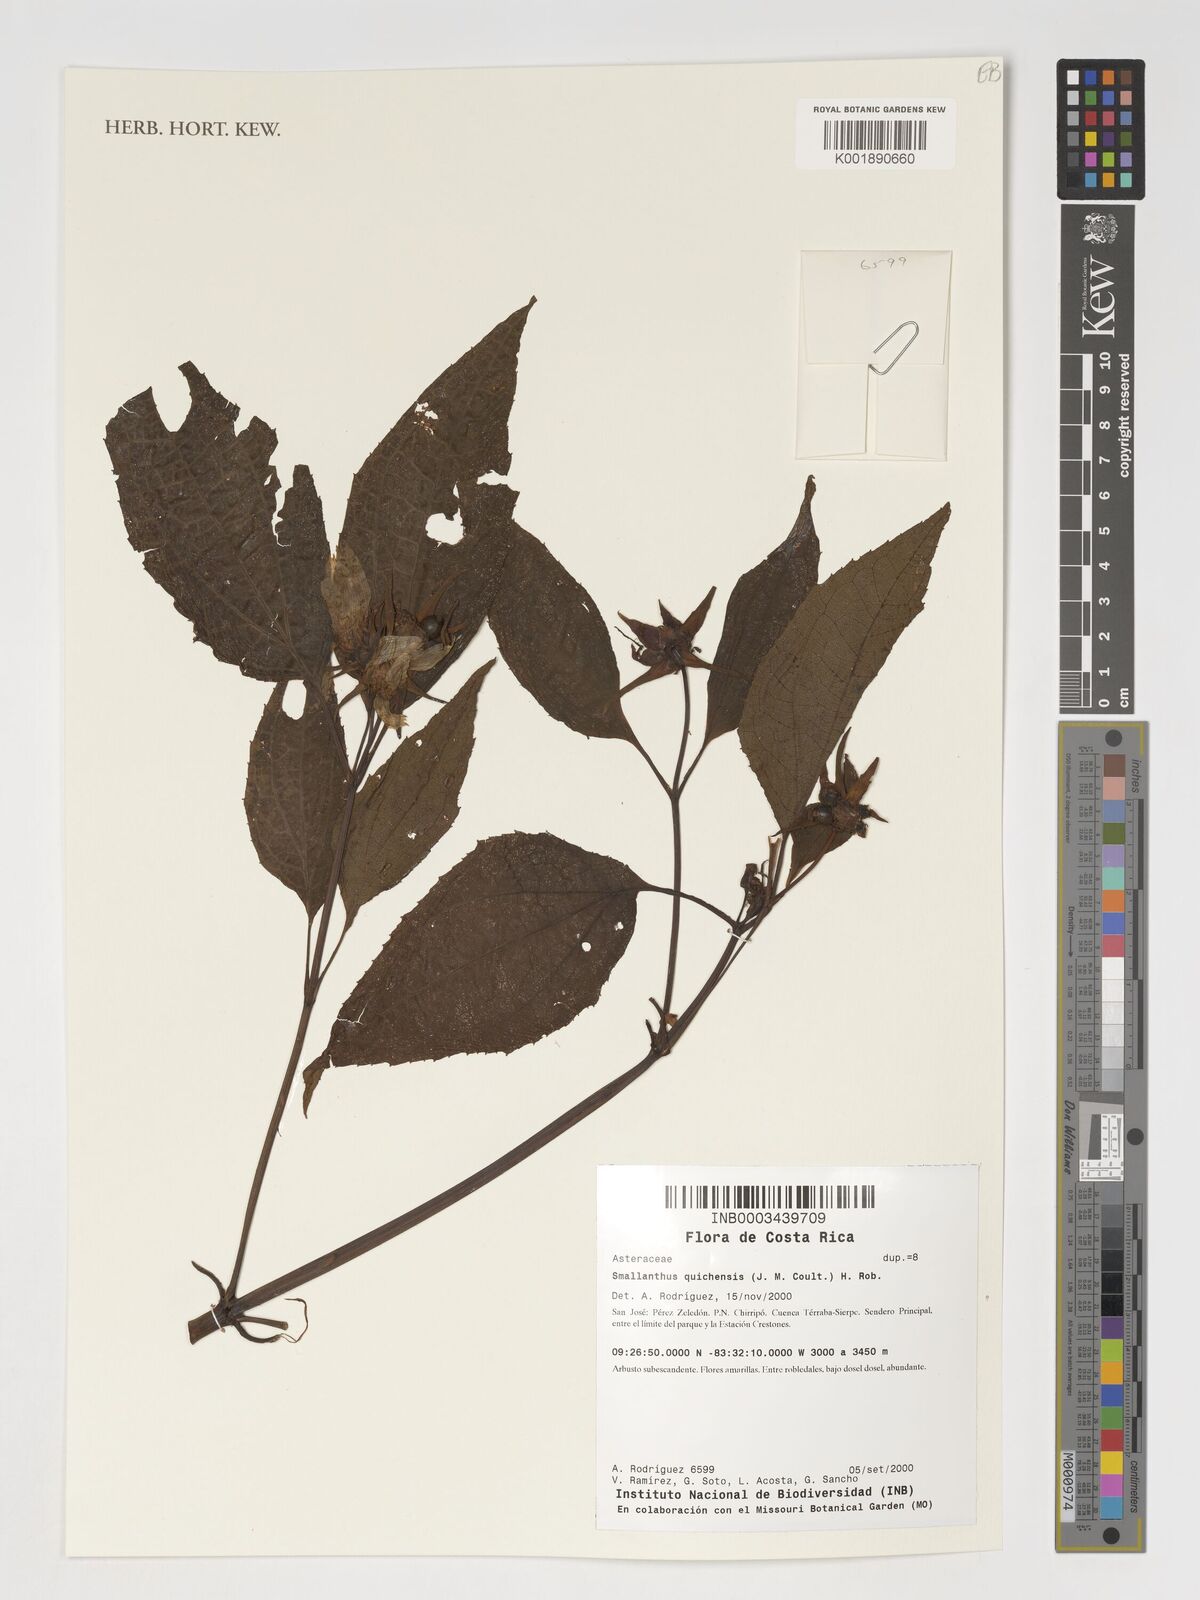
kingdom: Plantae
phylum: Tracheophyta
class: Magnoliopsida
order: Asterales
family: Asteraceae
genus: Smallanthus
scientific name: Smallanthus quichensis
